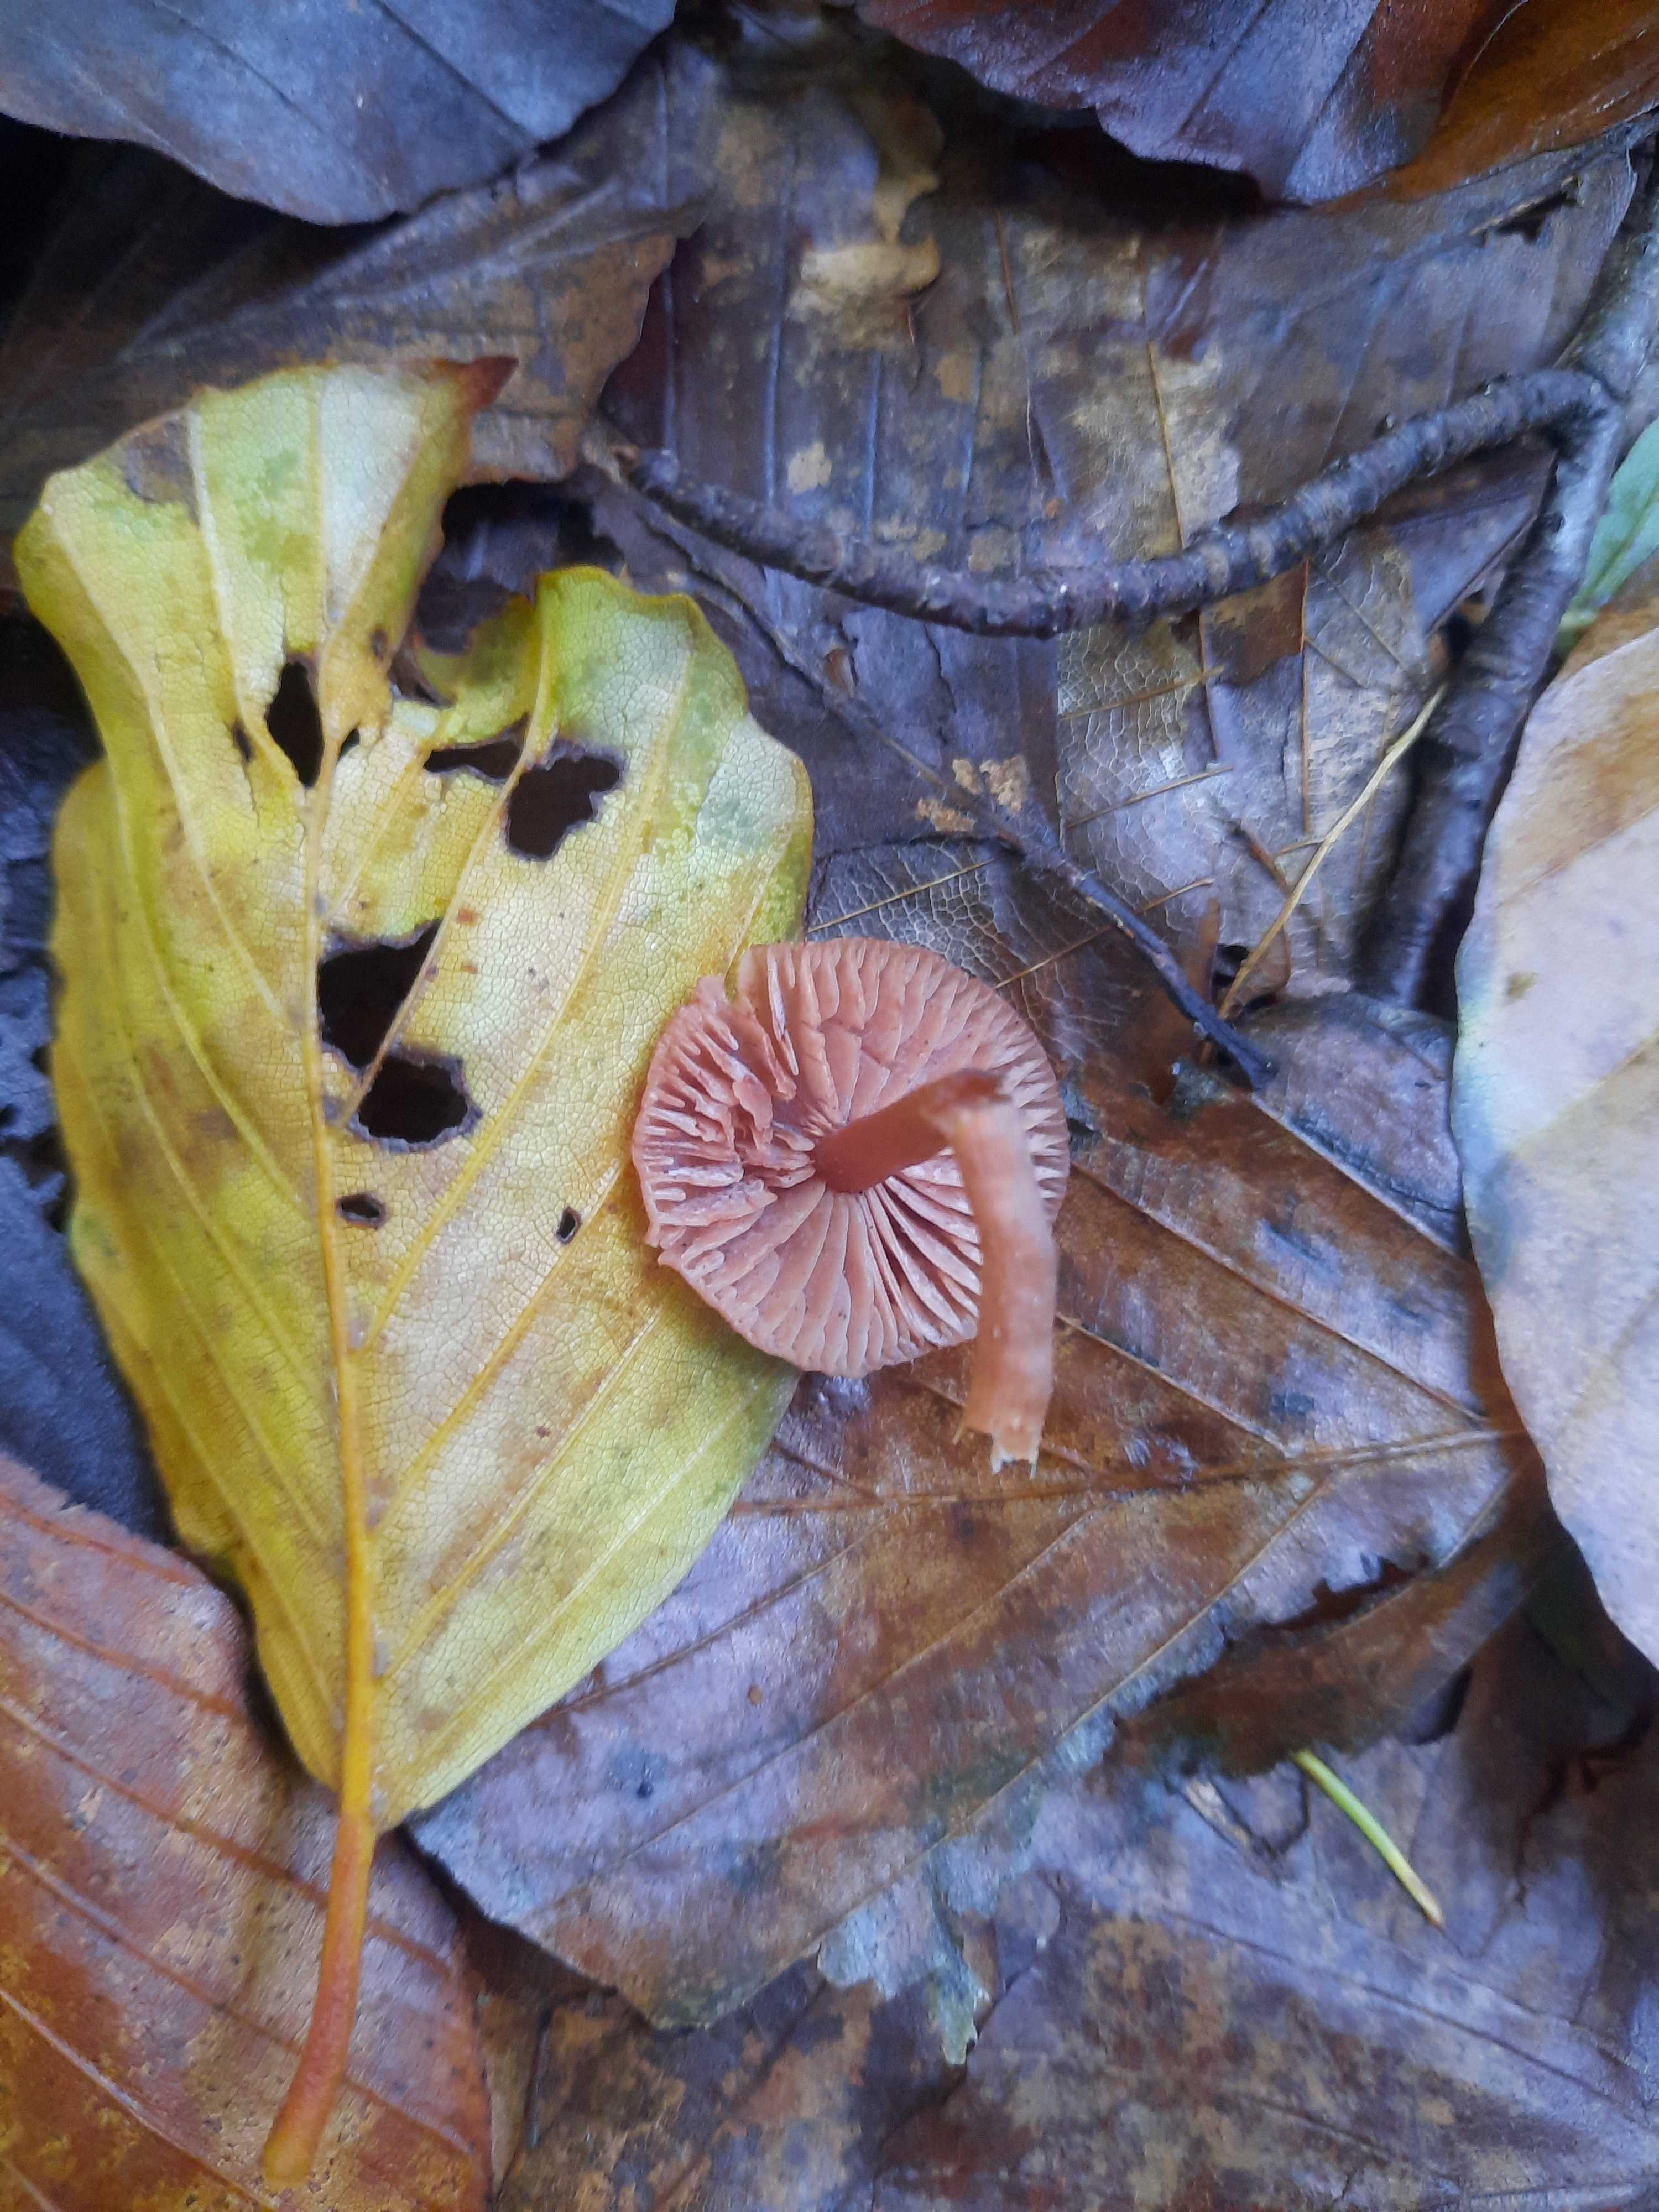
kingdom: Fungi
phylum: Basidiomycota
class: Agaricomycetes
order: Agaricales
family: Hydnangiaceae
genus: Laccaria
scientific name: Laccaria laccata
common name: rød ametysthat
